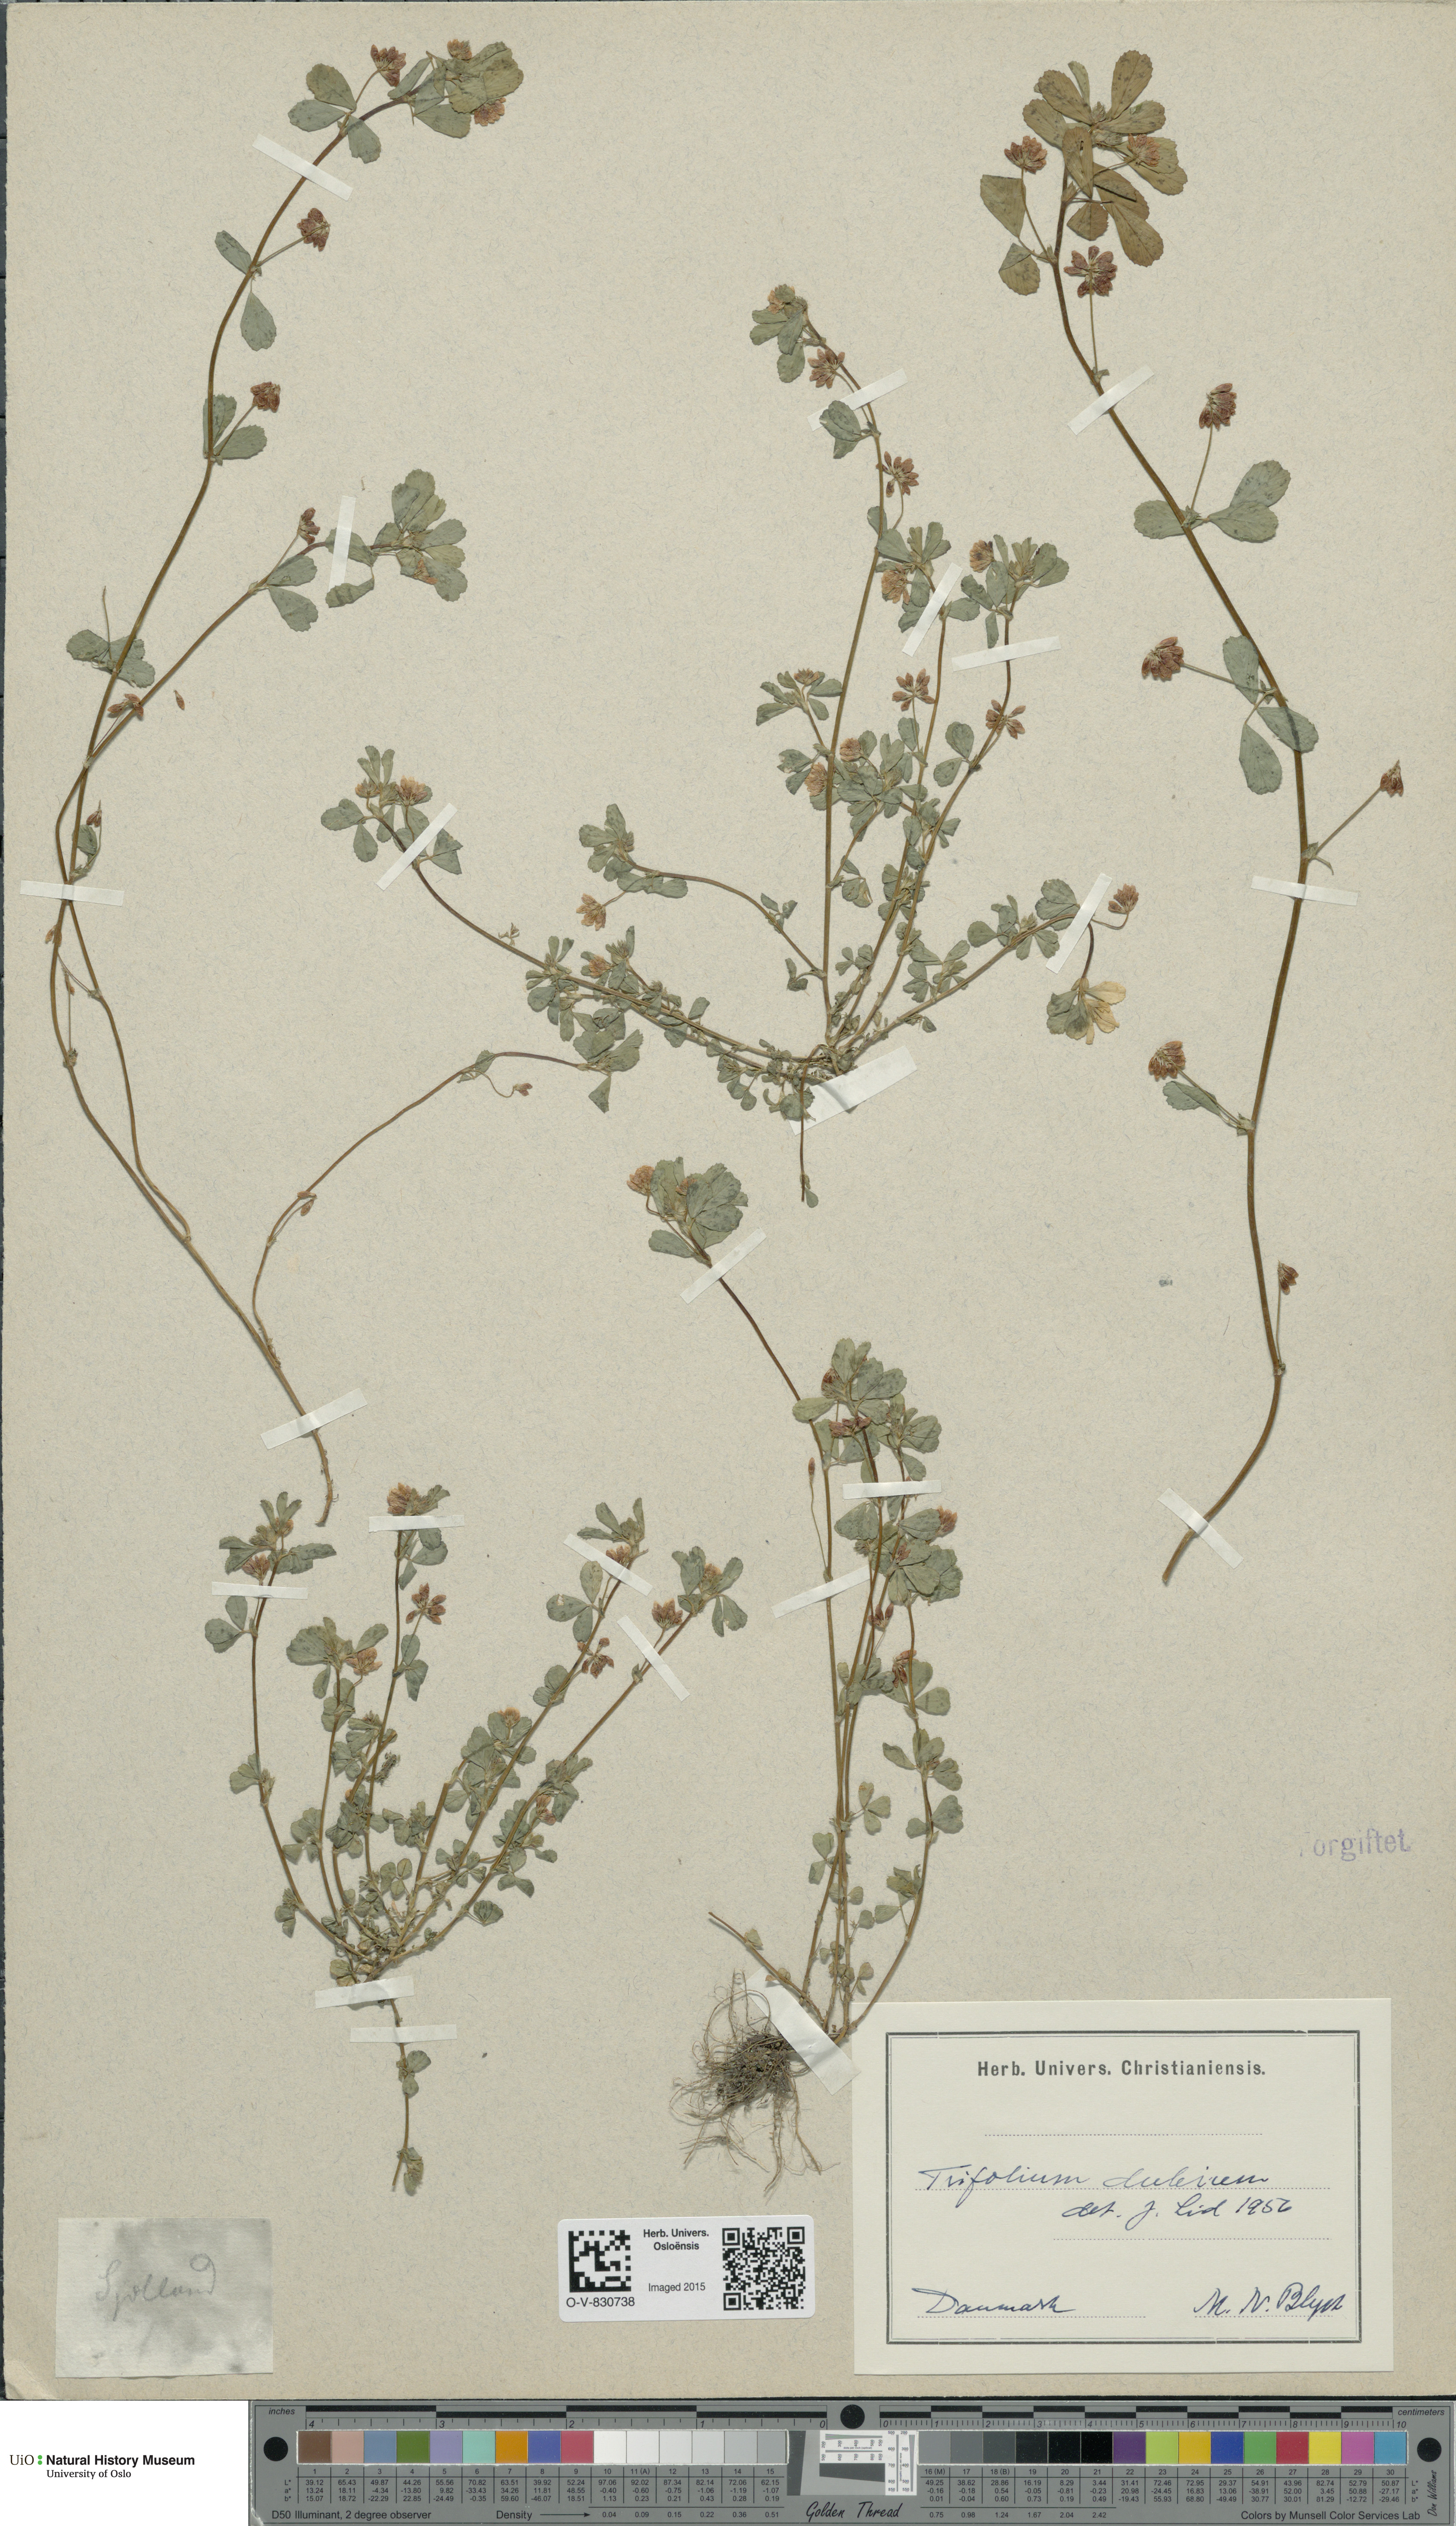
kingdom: Plantae
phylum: Tracheophyta
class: Magnoliopsida
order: Fabales
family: Fabaceae
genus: Trifolium
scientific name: Trifolium dubium
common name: Suckling clover
